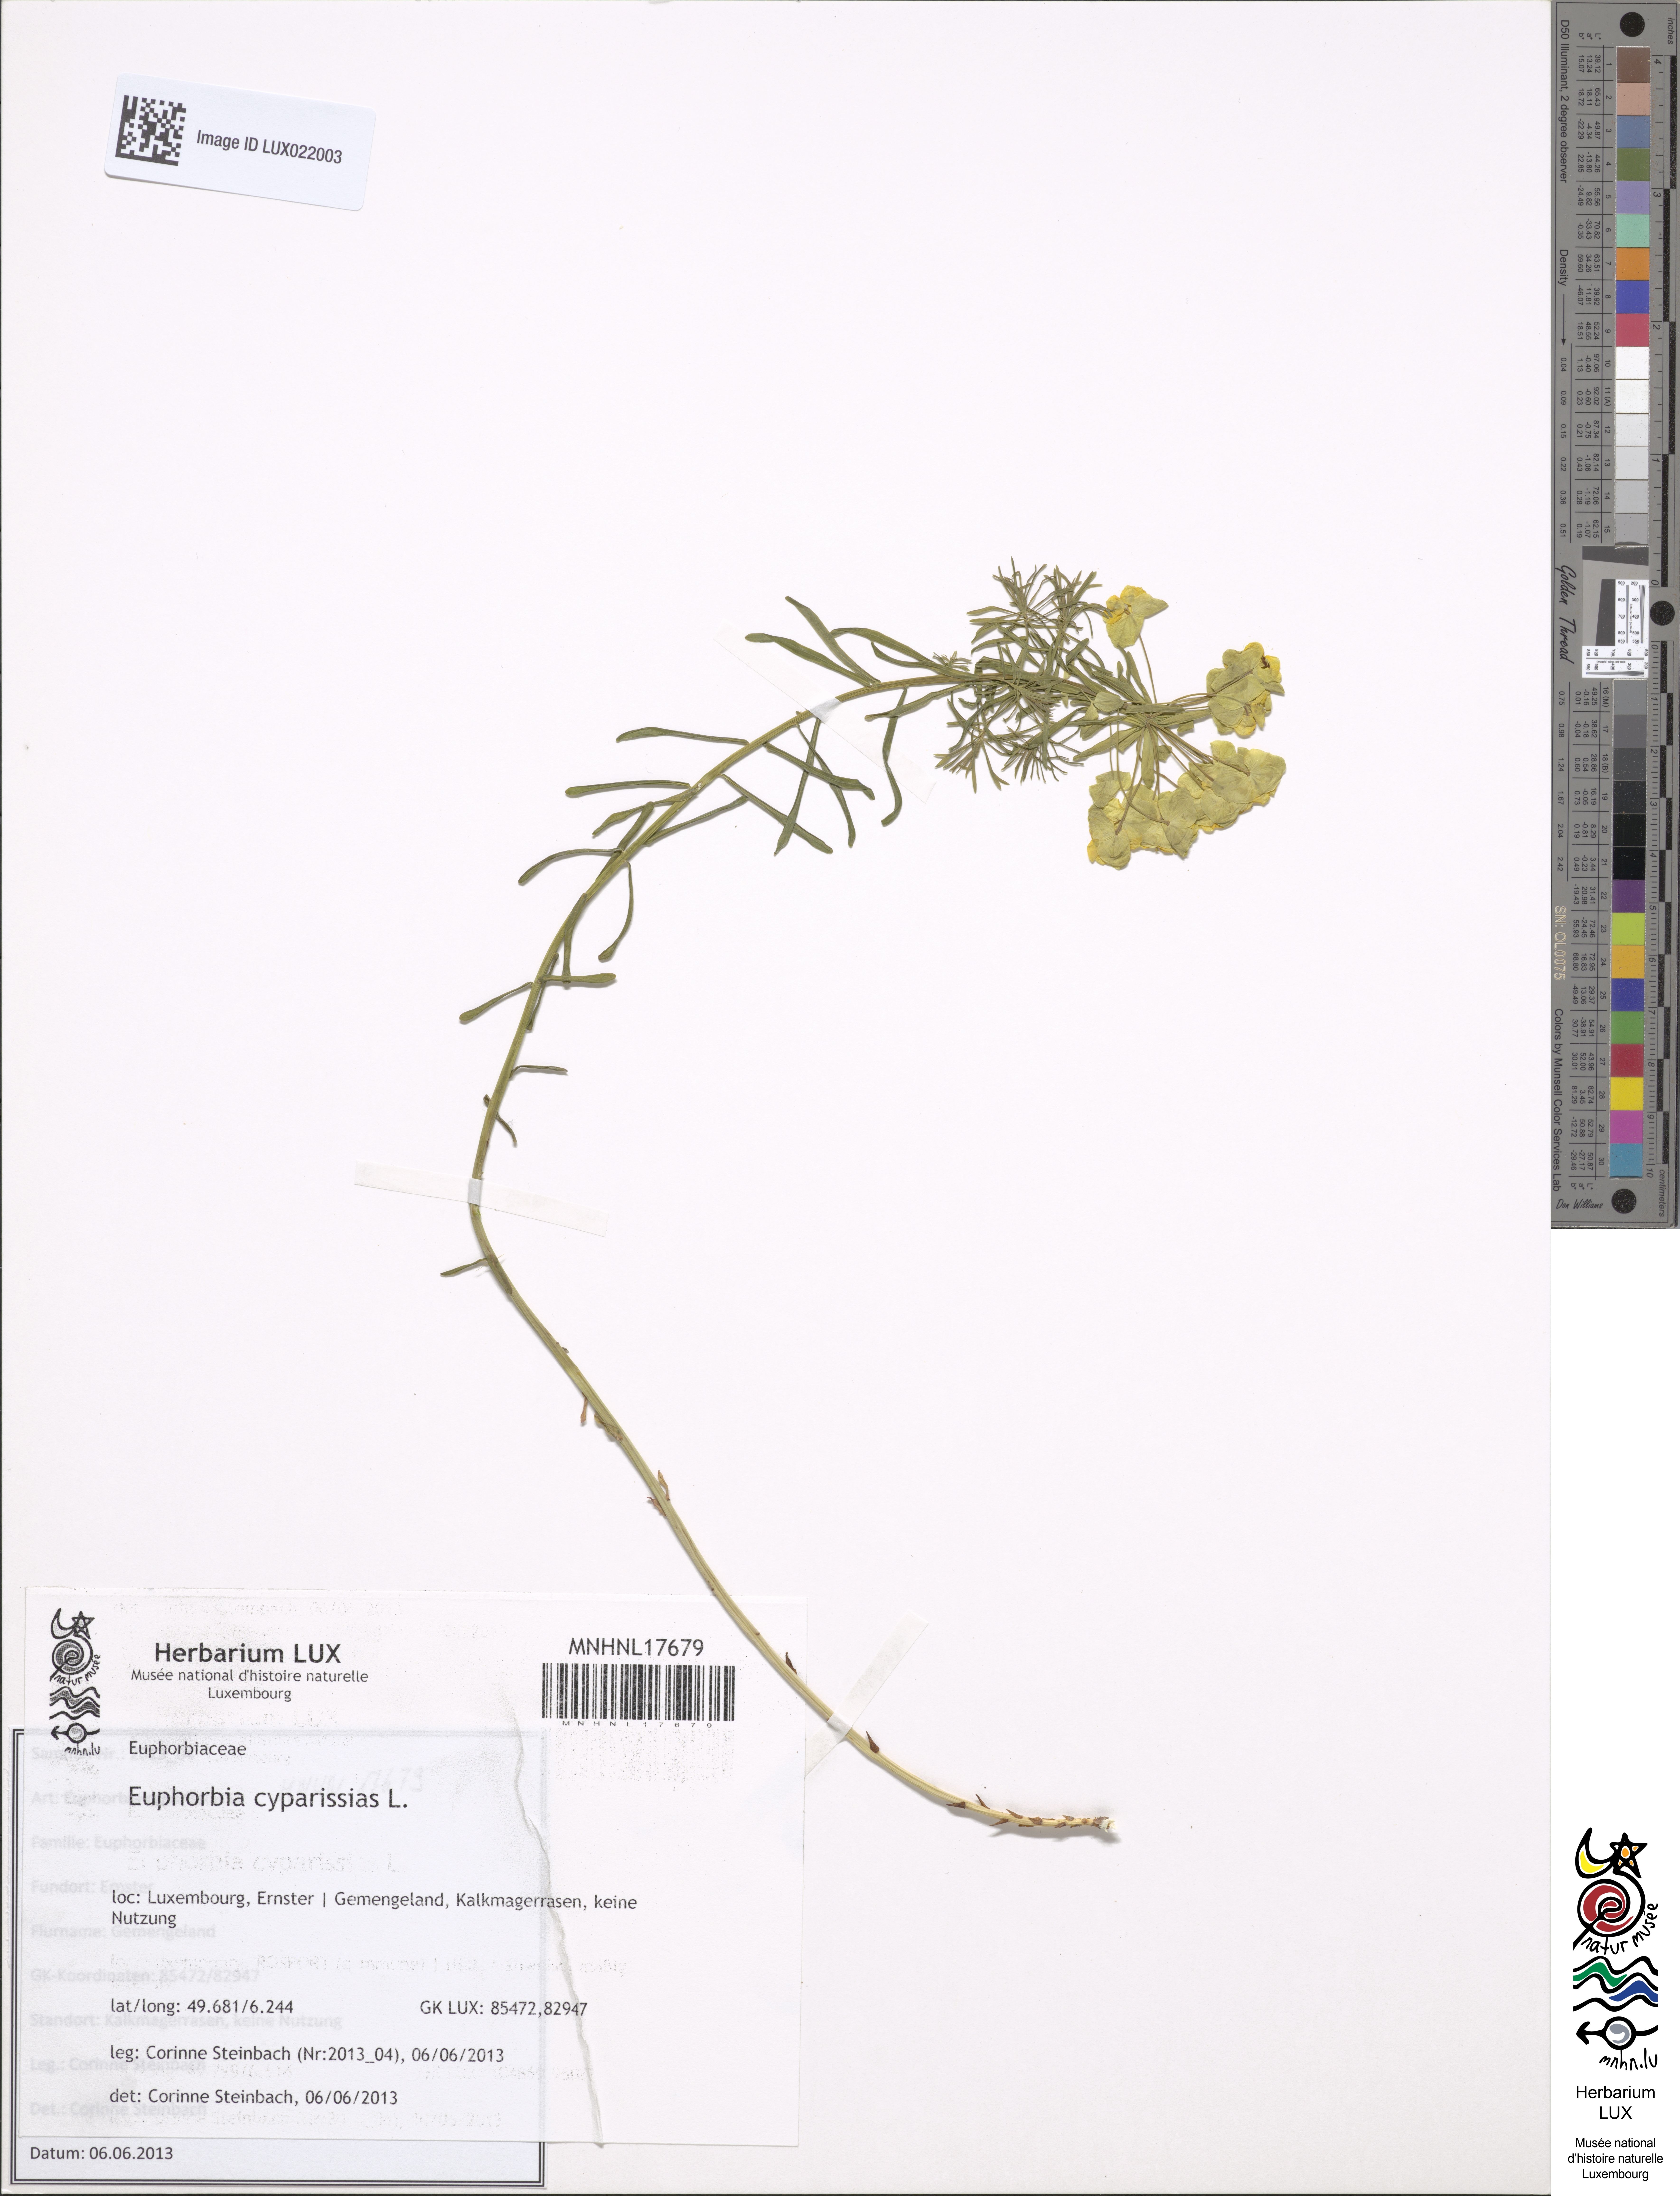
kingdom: Plantae
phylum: Tracheophyta
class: Magnoliopsida
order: Malpighiales
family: Euphorbiaceae
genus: Euphorbia
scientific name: Euphorbia cyparissias
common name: Cypress spurge
